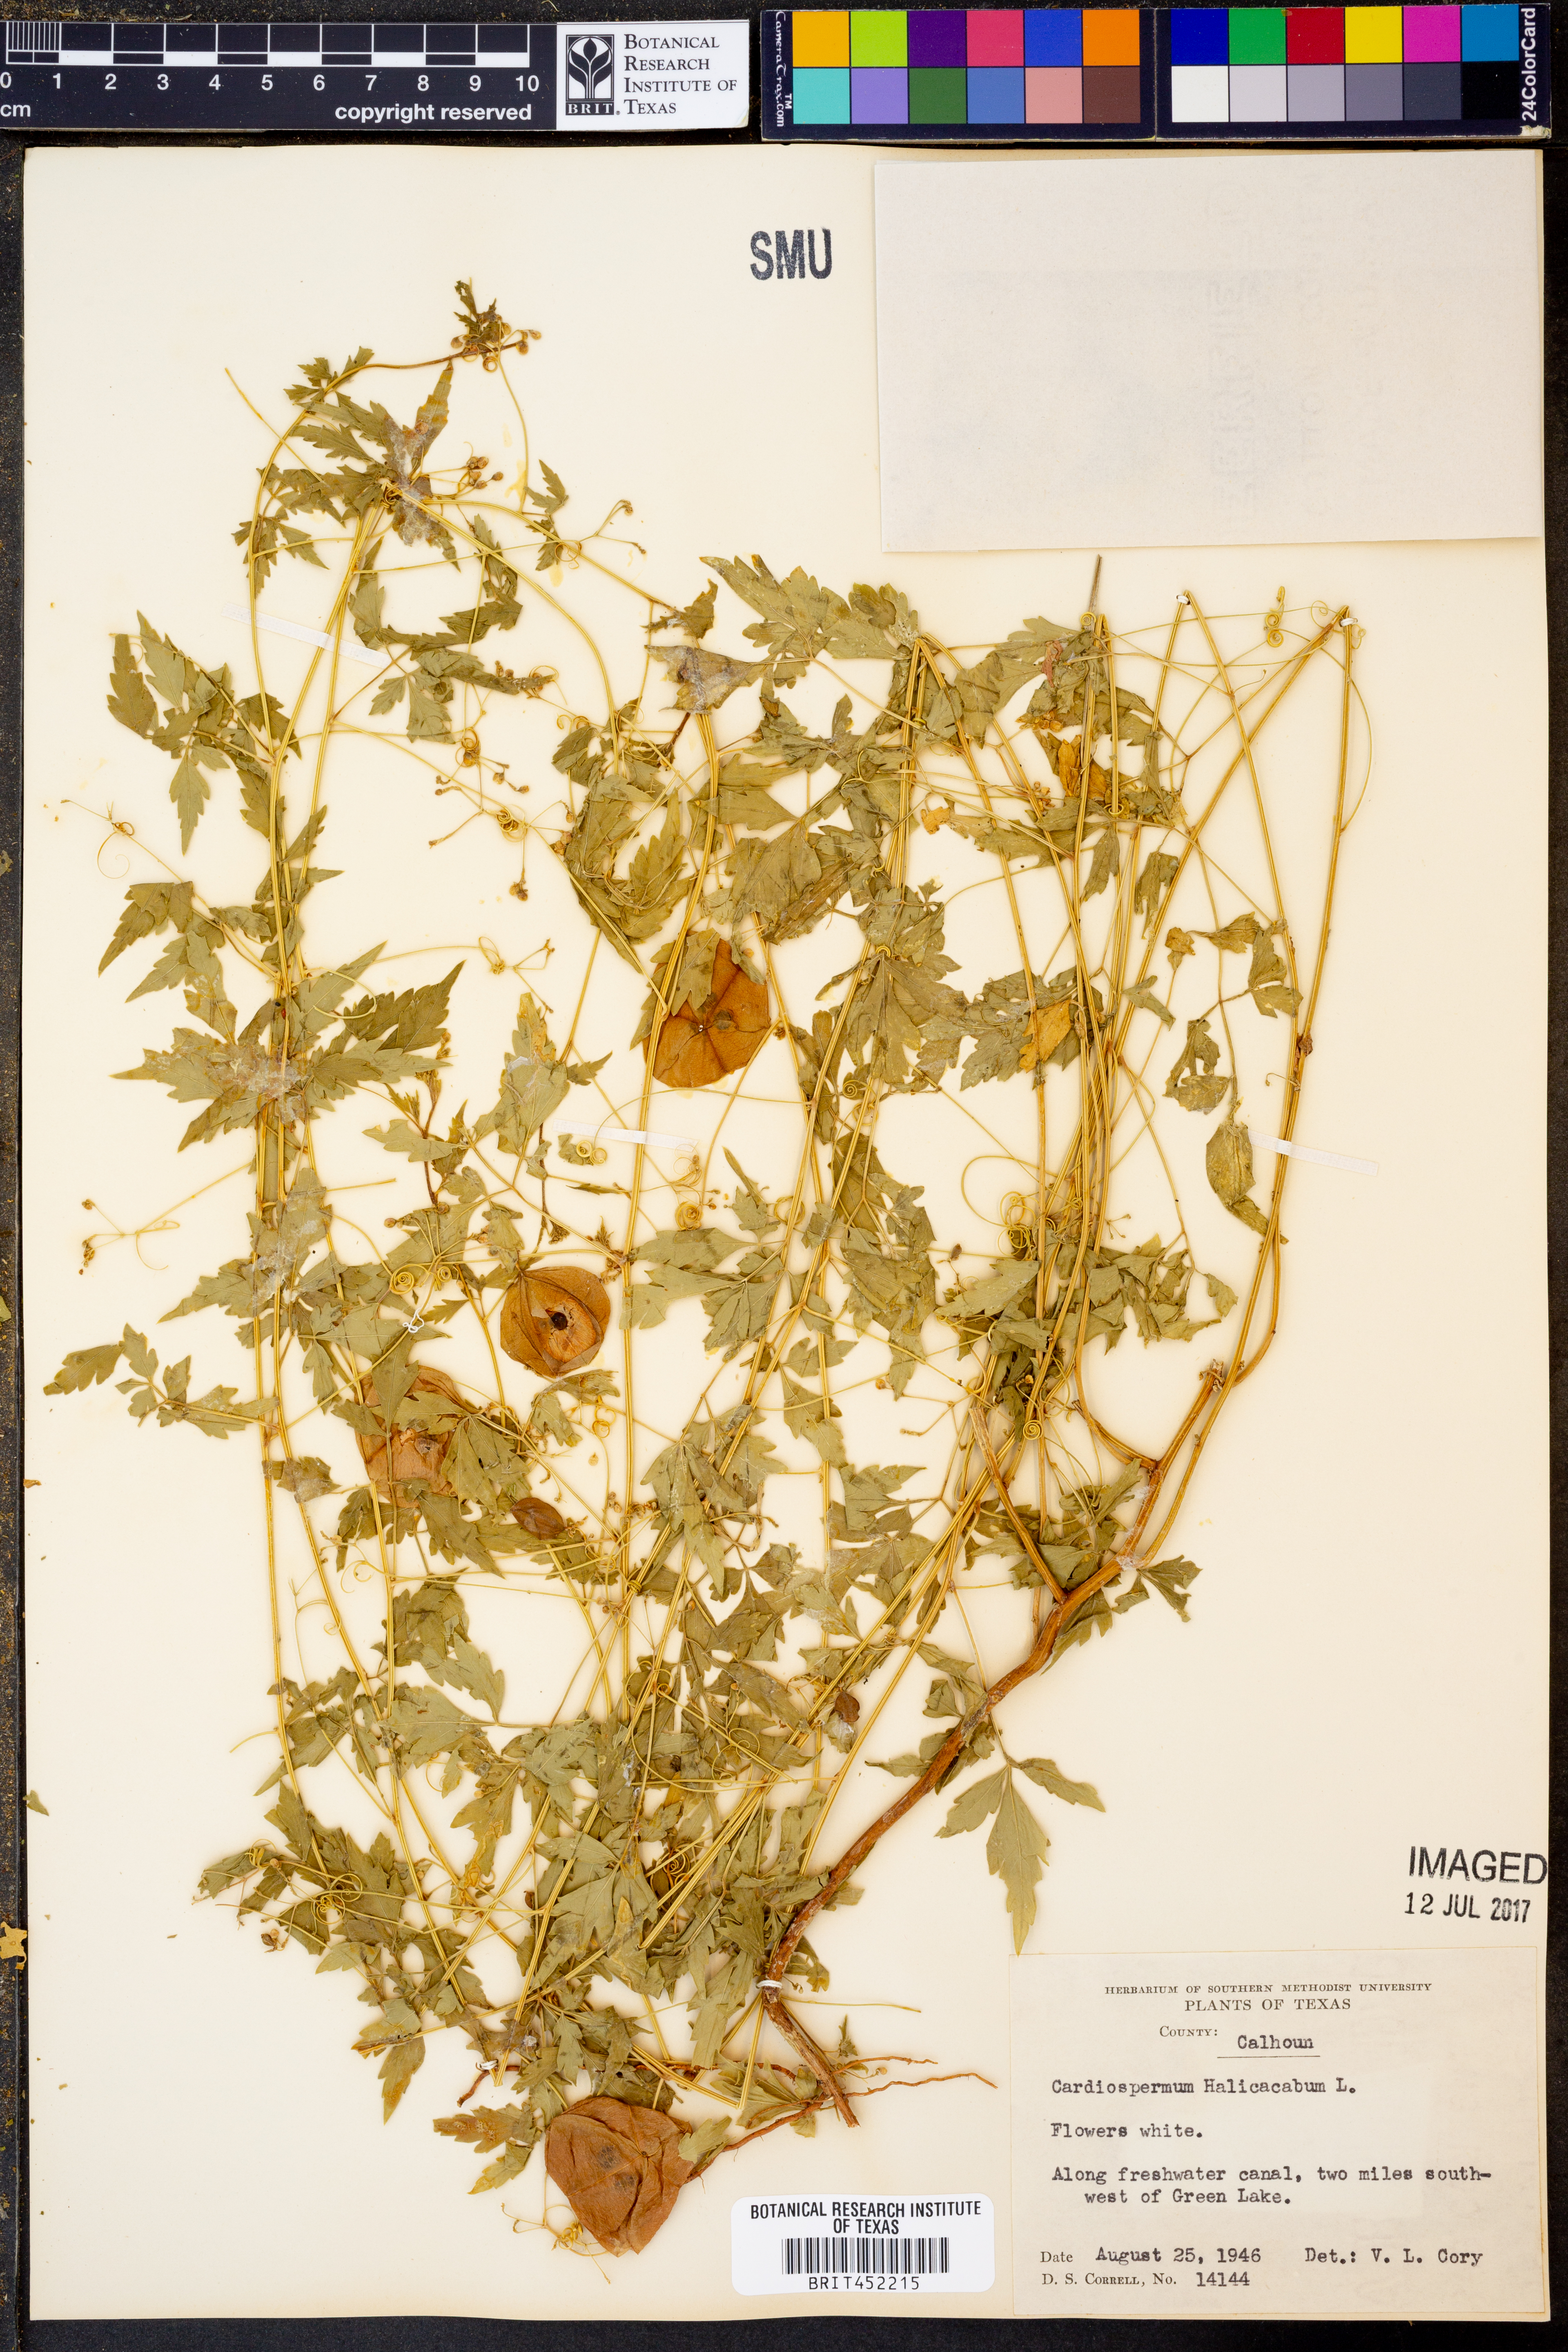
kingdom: Plantae
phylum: Tracheophyta
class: Magnoliopsida
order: Sapindales
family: Sapindaceae
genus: Cardiospermum
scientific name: Cardiospermum halicacabum
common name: Balloon vine
